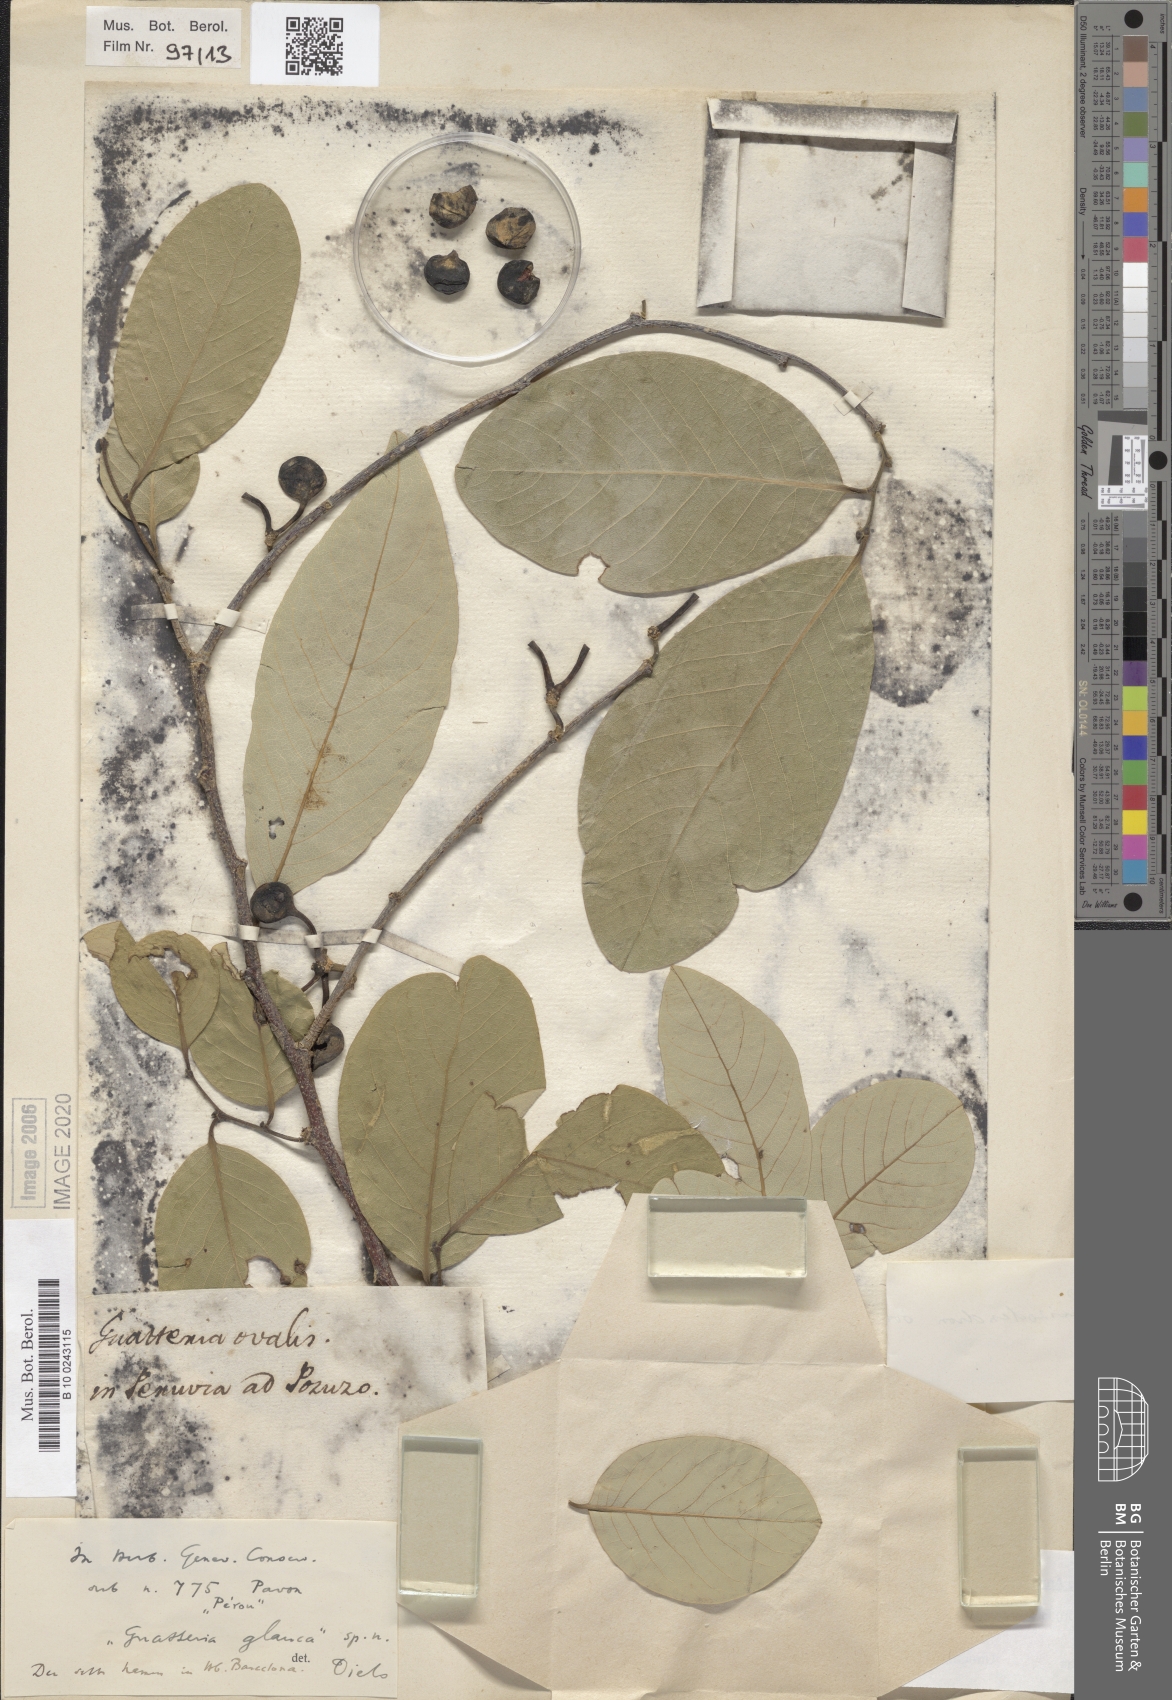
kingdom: Plantae
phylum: Tracheophyta
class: Magnoliopsida
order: Magnoliales
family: Annonaceae
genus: Ruizodendron
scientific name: Ruizodendron ovale
